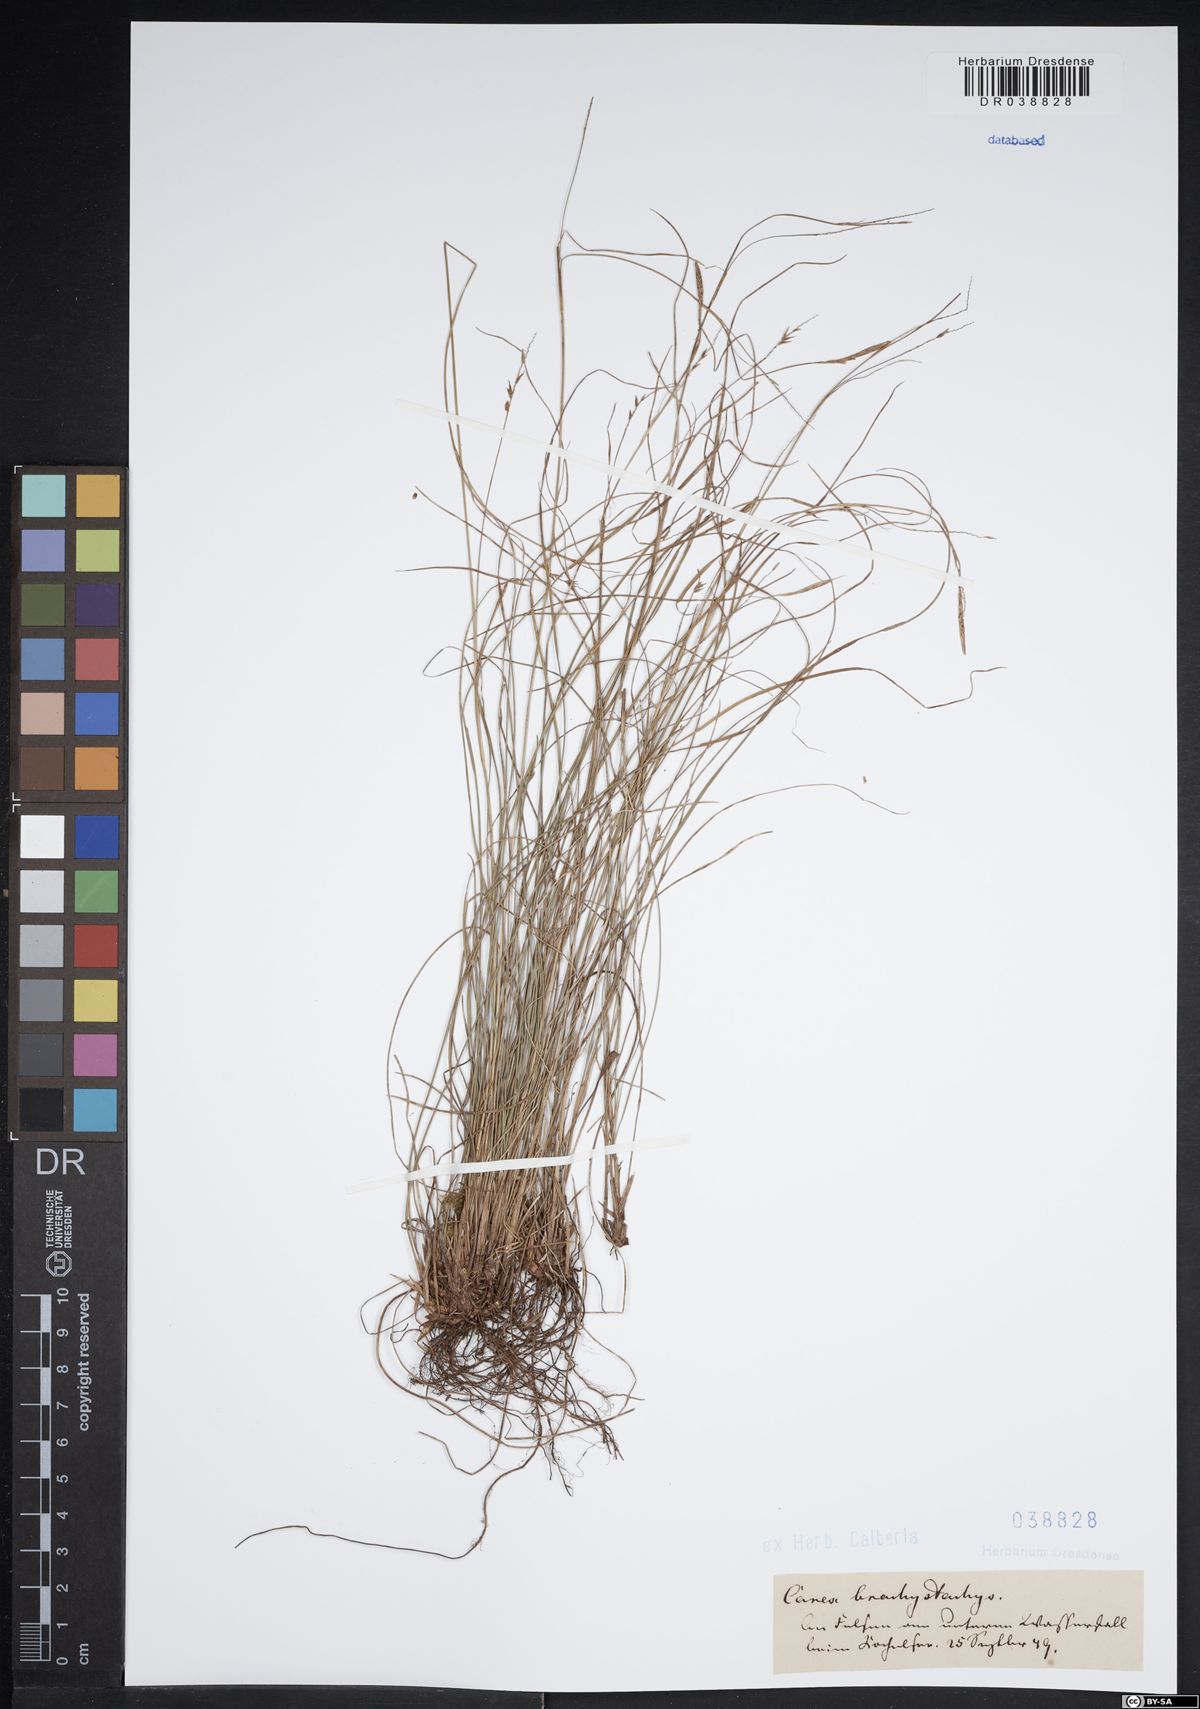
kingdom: Plantae
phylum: Tracheophyta
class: Liliopsida
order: Poales
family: Cyperaceae
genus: Carex
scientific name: Carex brachystachys
